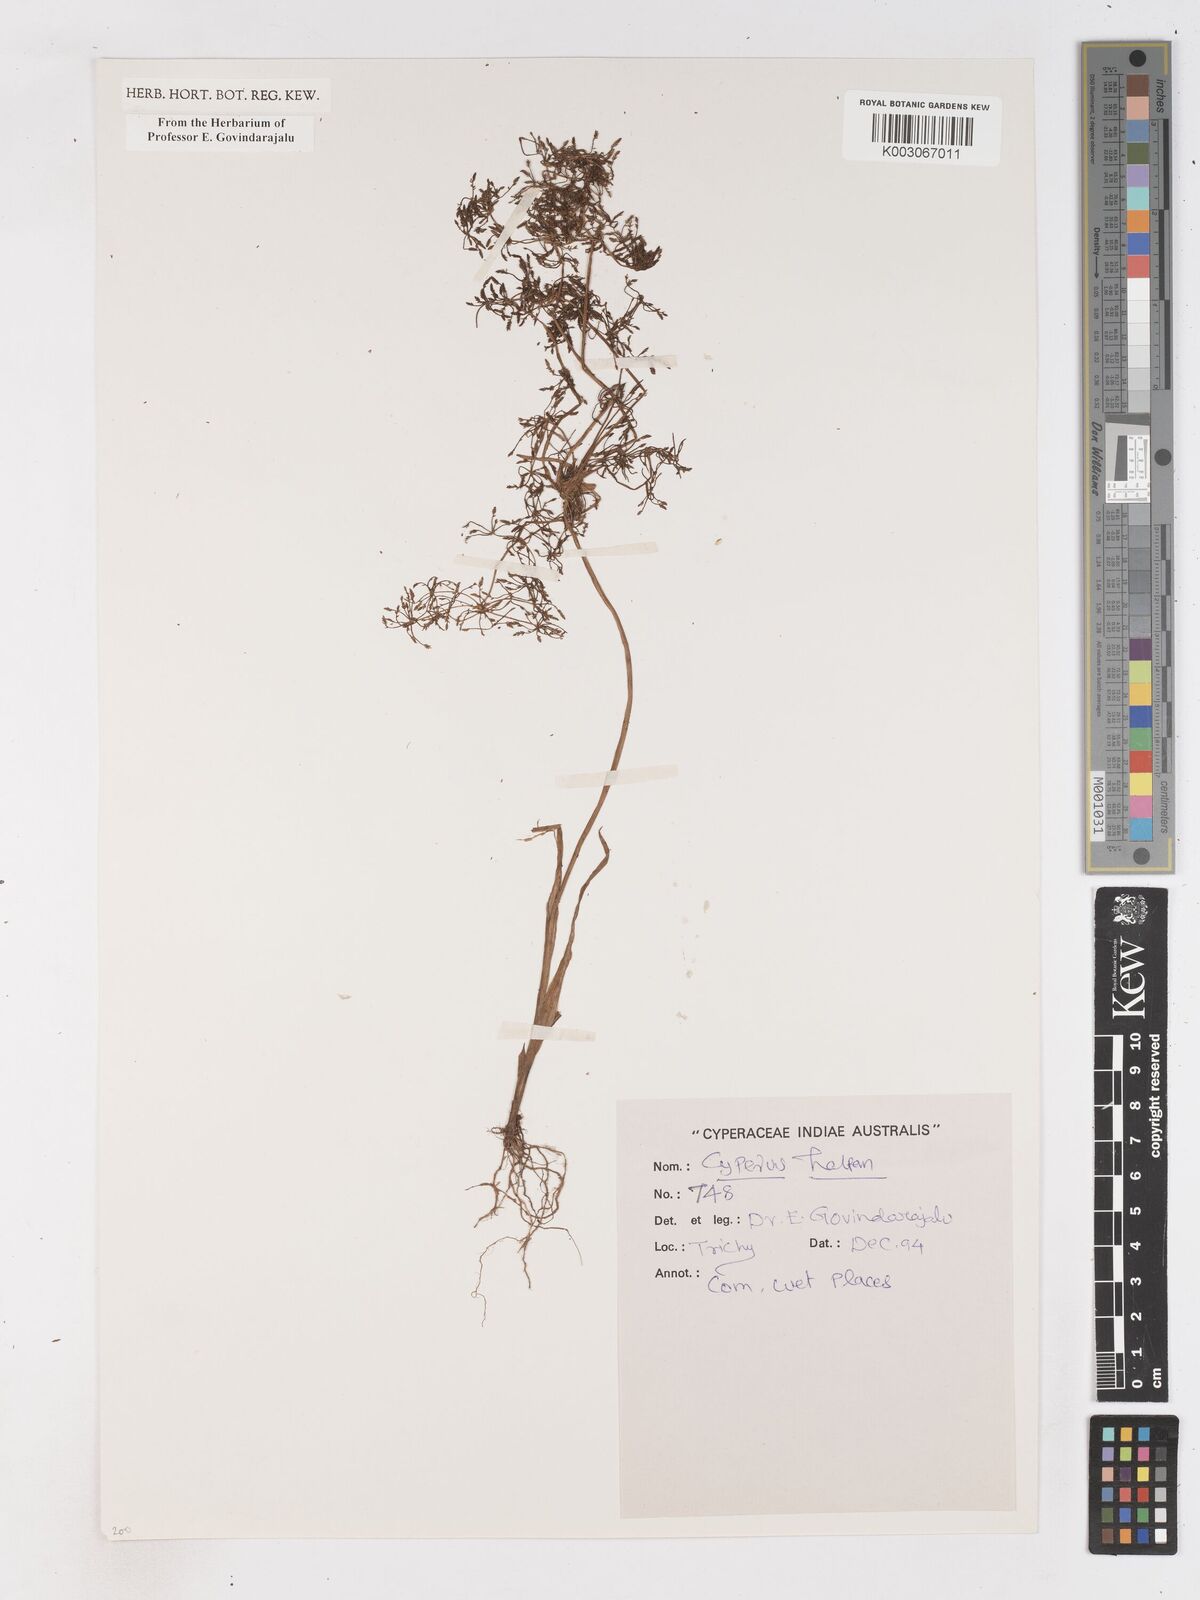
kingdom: Plantae
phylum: Tracheophyta
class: Liliopsida
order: Poales
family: Cyperaceae
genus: Cyperus
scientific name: Cyperus haspan
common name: Haspan flatsedge
